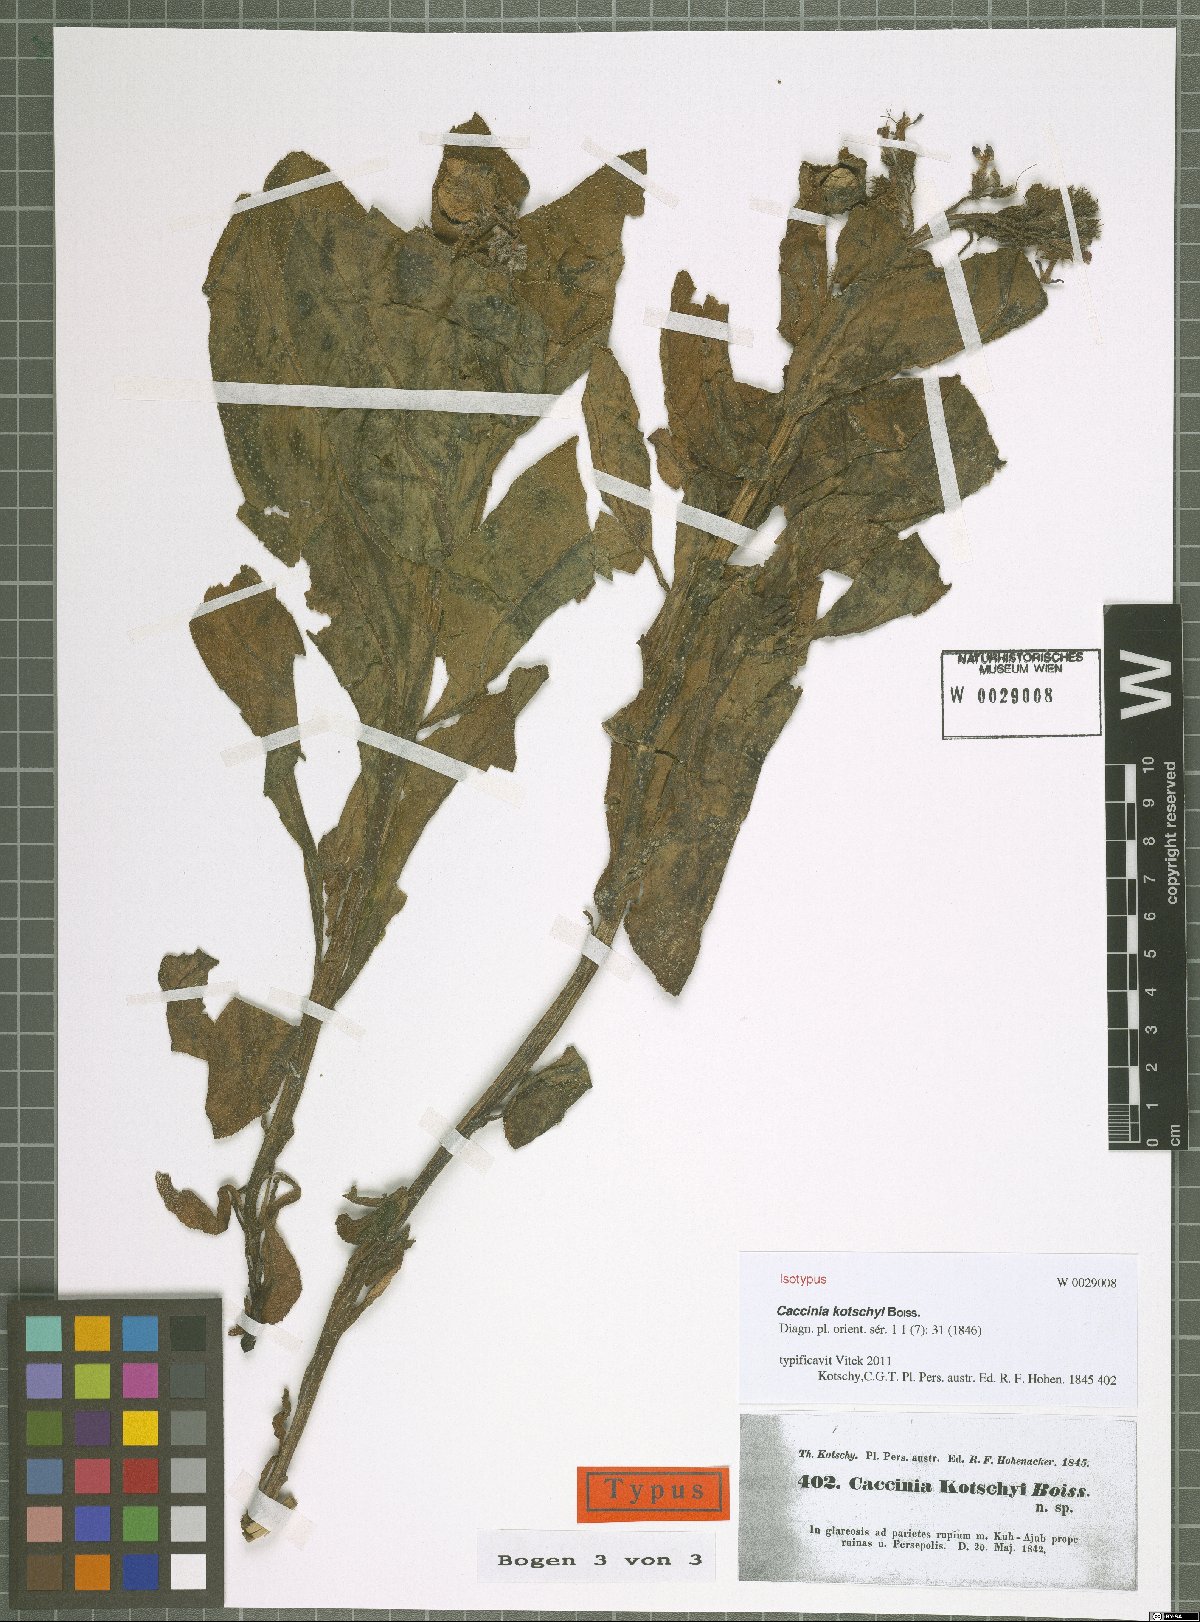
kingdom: Plantae
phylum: Tracheophyta
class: Magnoliopsida
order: Boraginales
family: Boraginaceae
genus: Caccinia
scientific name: Caccinia kotschyi
